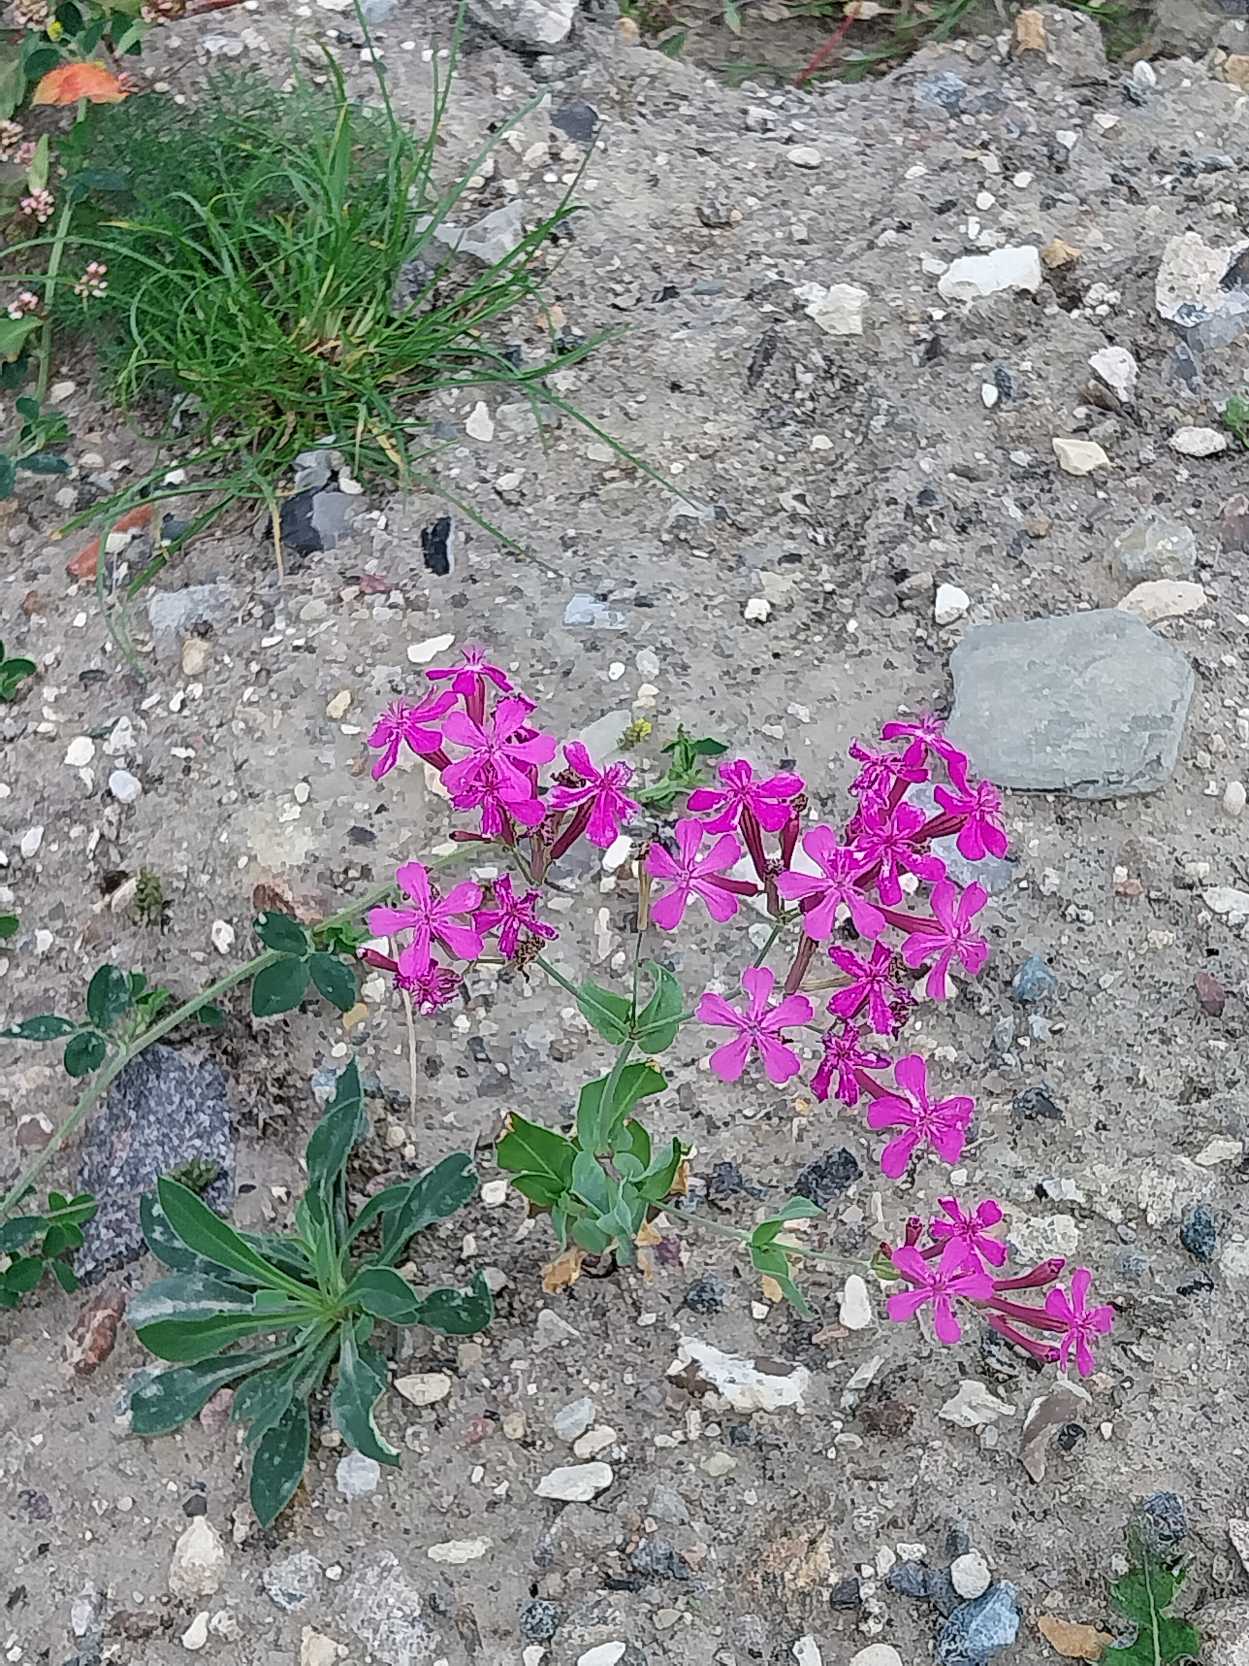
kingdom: Plantae
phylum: Tracheophyta
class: Magnoliopsida
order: Caryophyllales
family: Caryophyllaceae
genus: Atocion
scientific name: Atocion armeria
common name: Knippe-limurt
